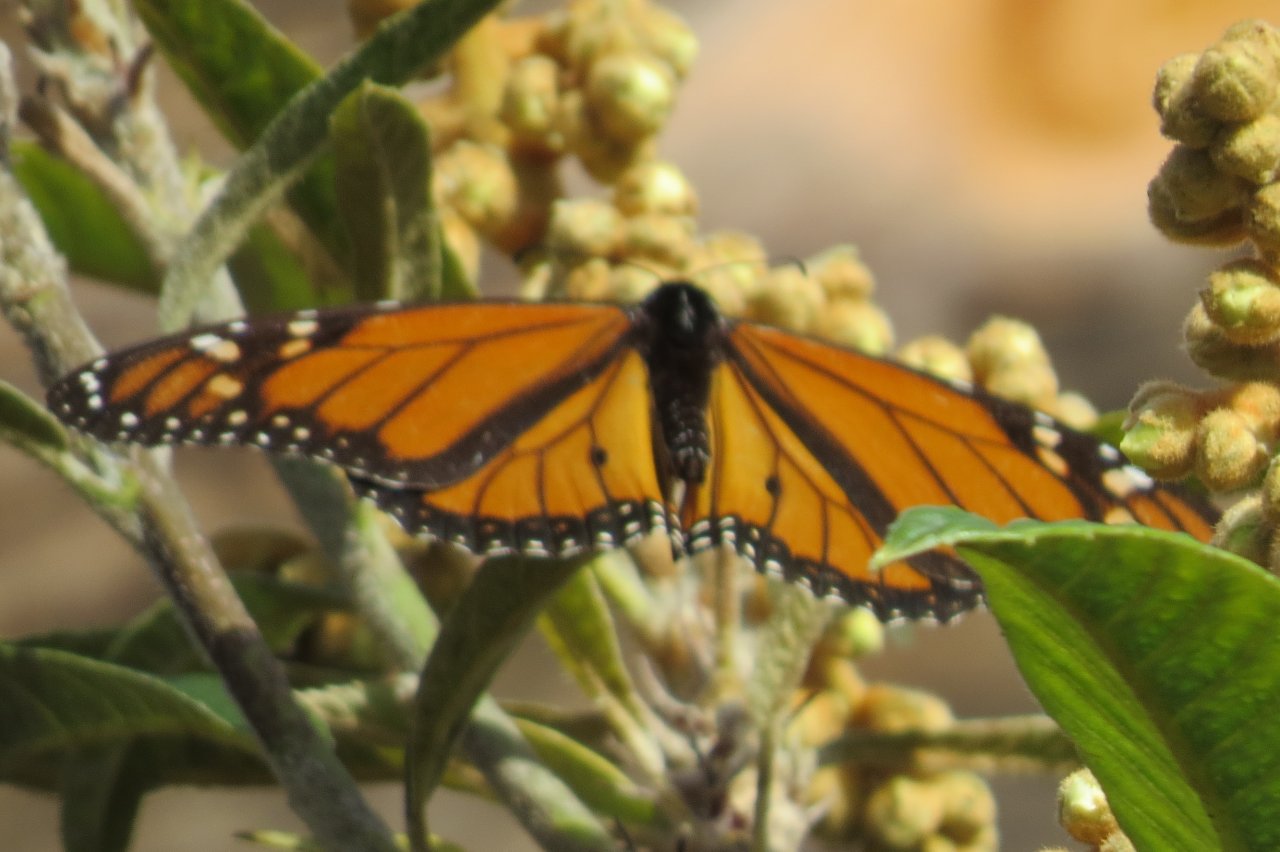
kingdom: Animalia
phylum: Arthropoda
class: Insecta
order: Lepidoptera
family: Nymphalidae
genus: Danaus
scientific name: Danaus plexippus
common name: Monarch
